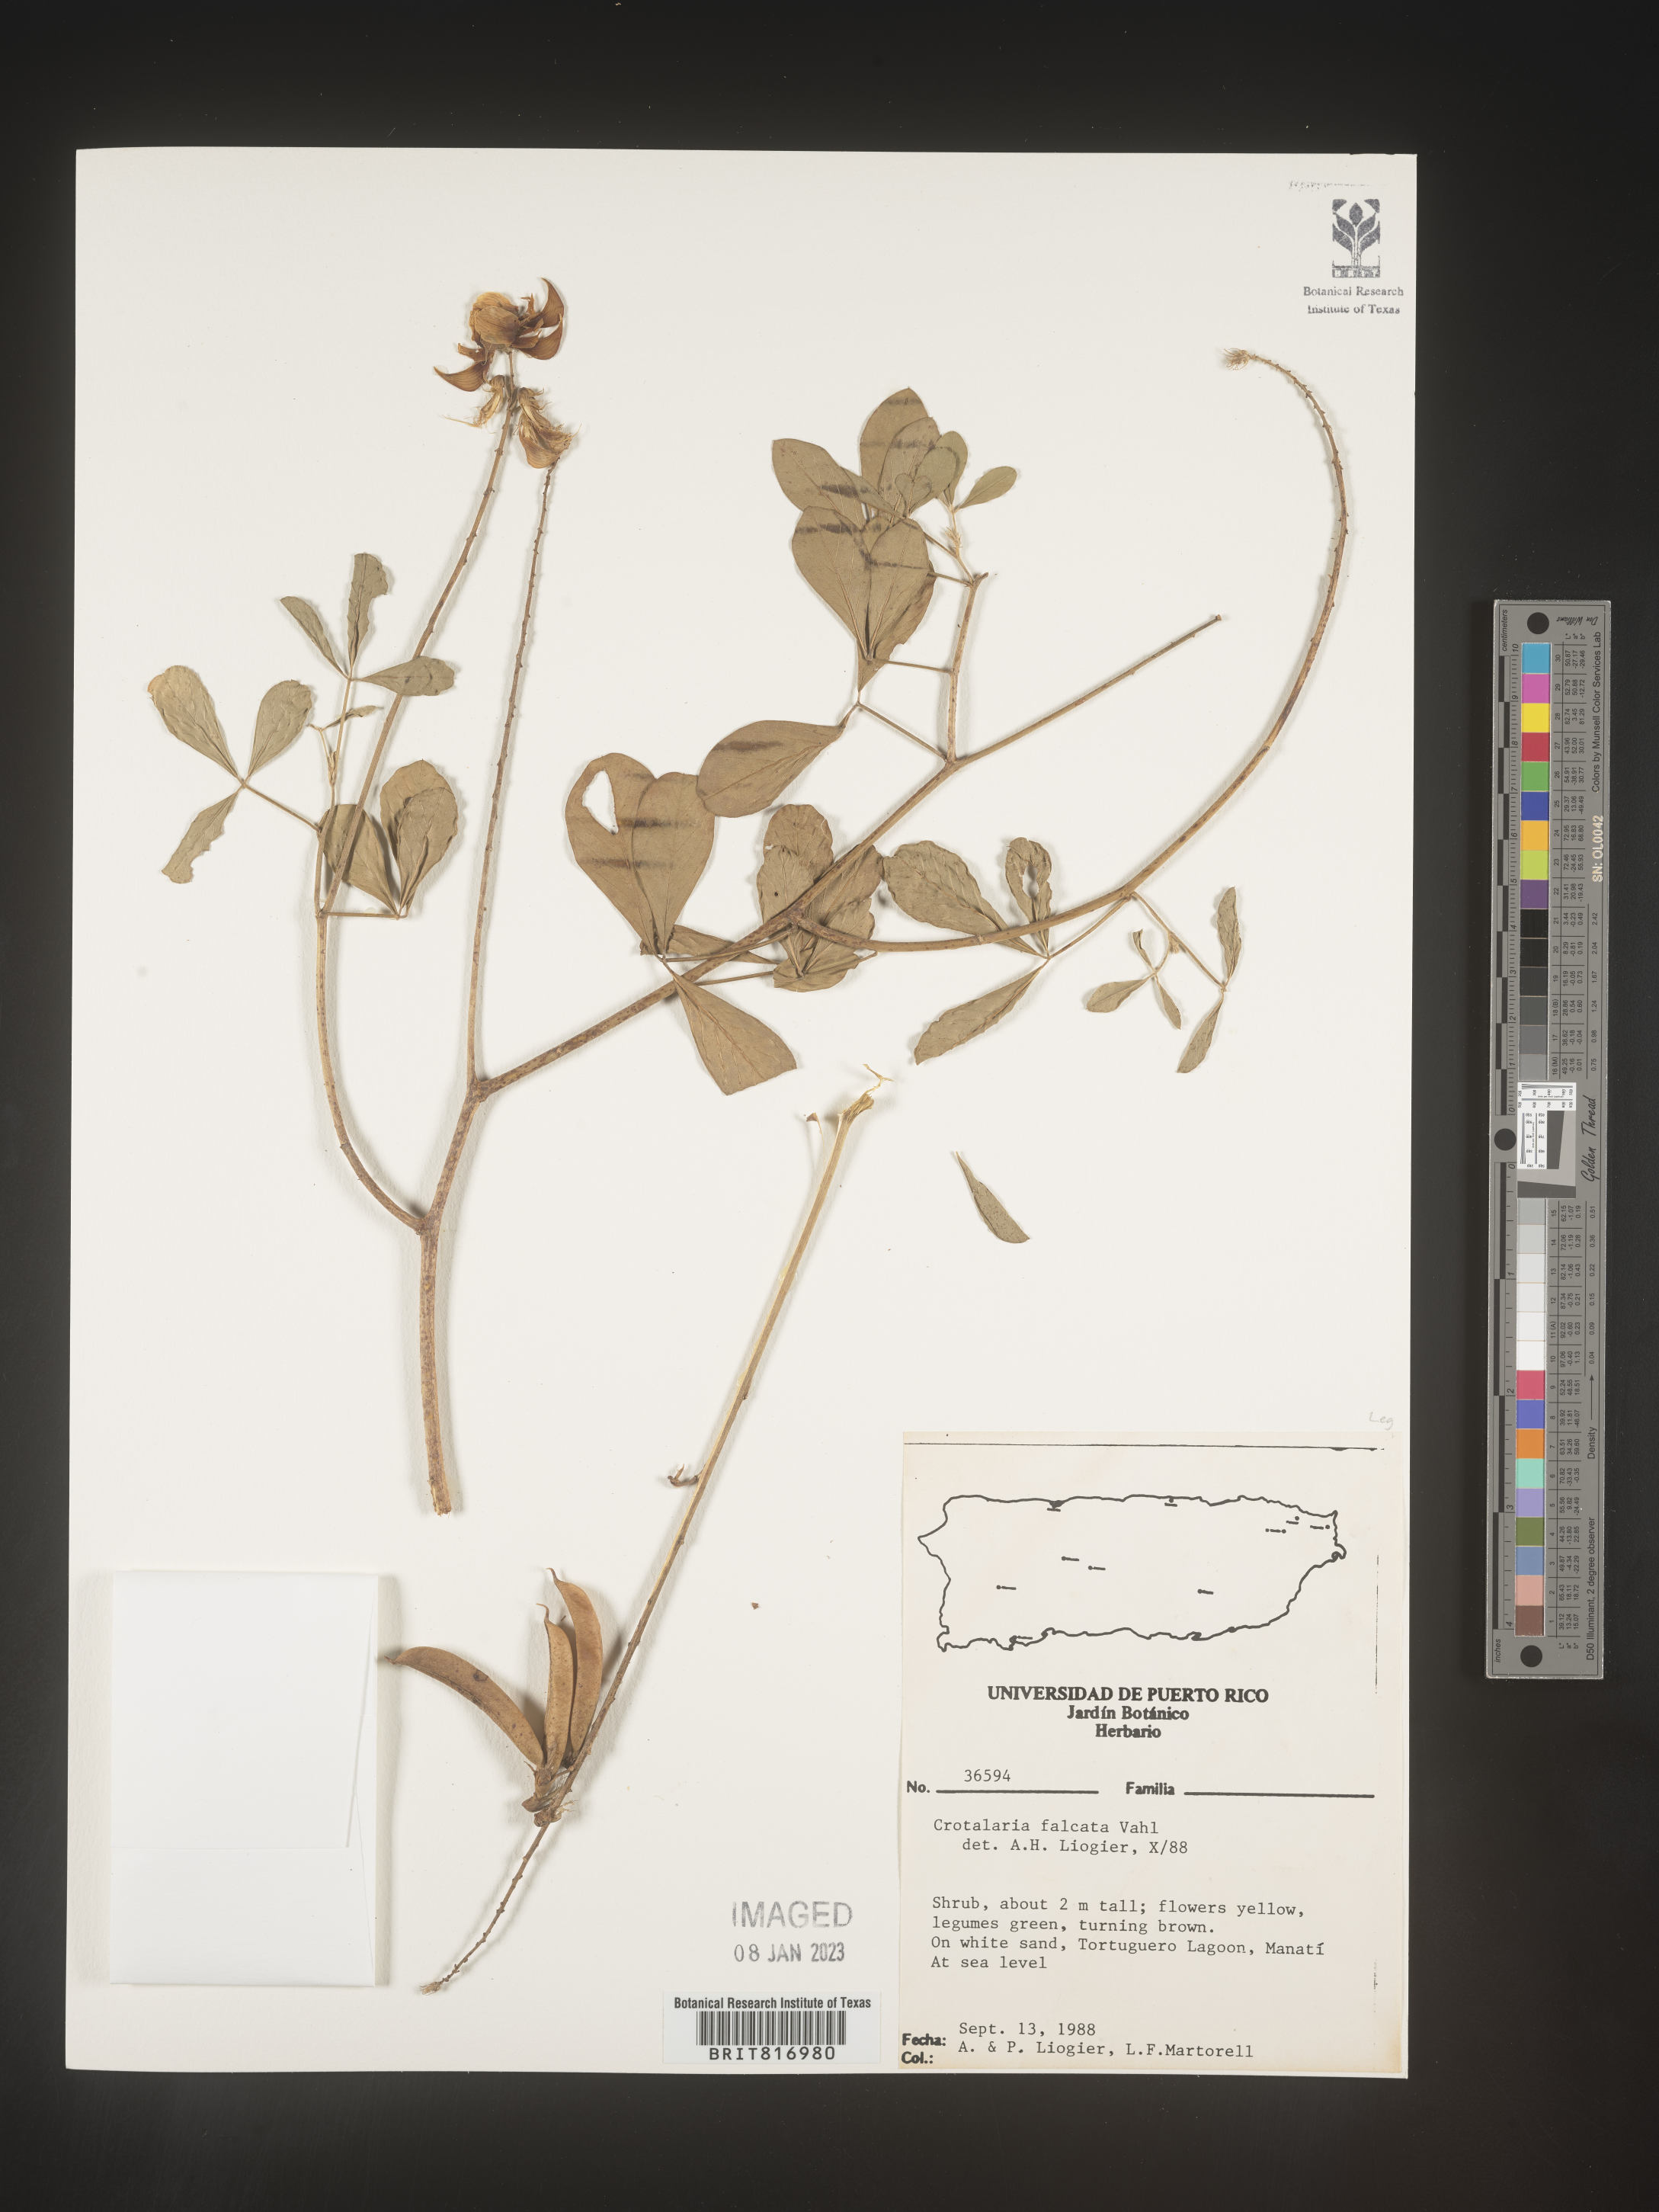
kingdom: Plantae
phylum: Tracheophyta
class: Magnoliopsida
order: Fabales
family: Fabaceae
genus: Crotalaria
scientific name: Crotalaria
